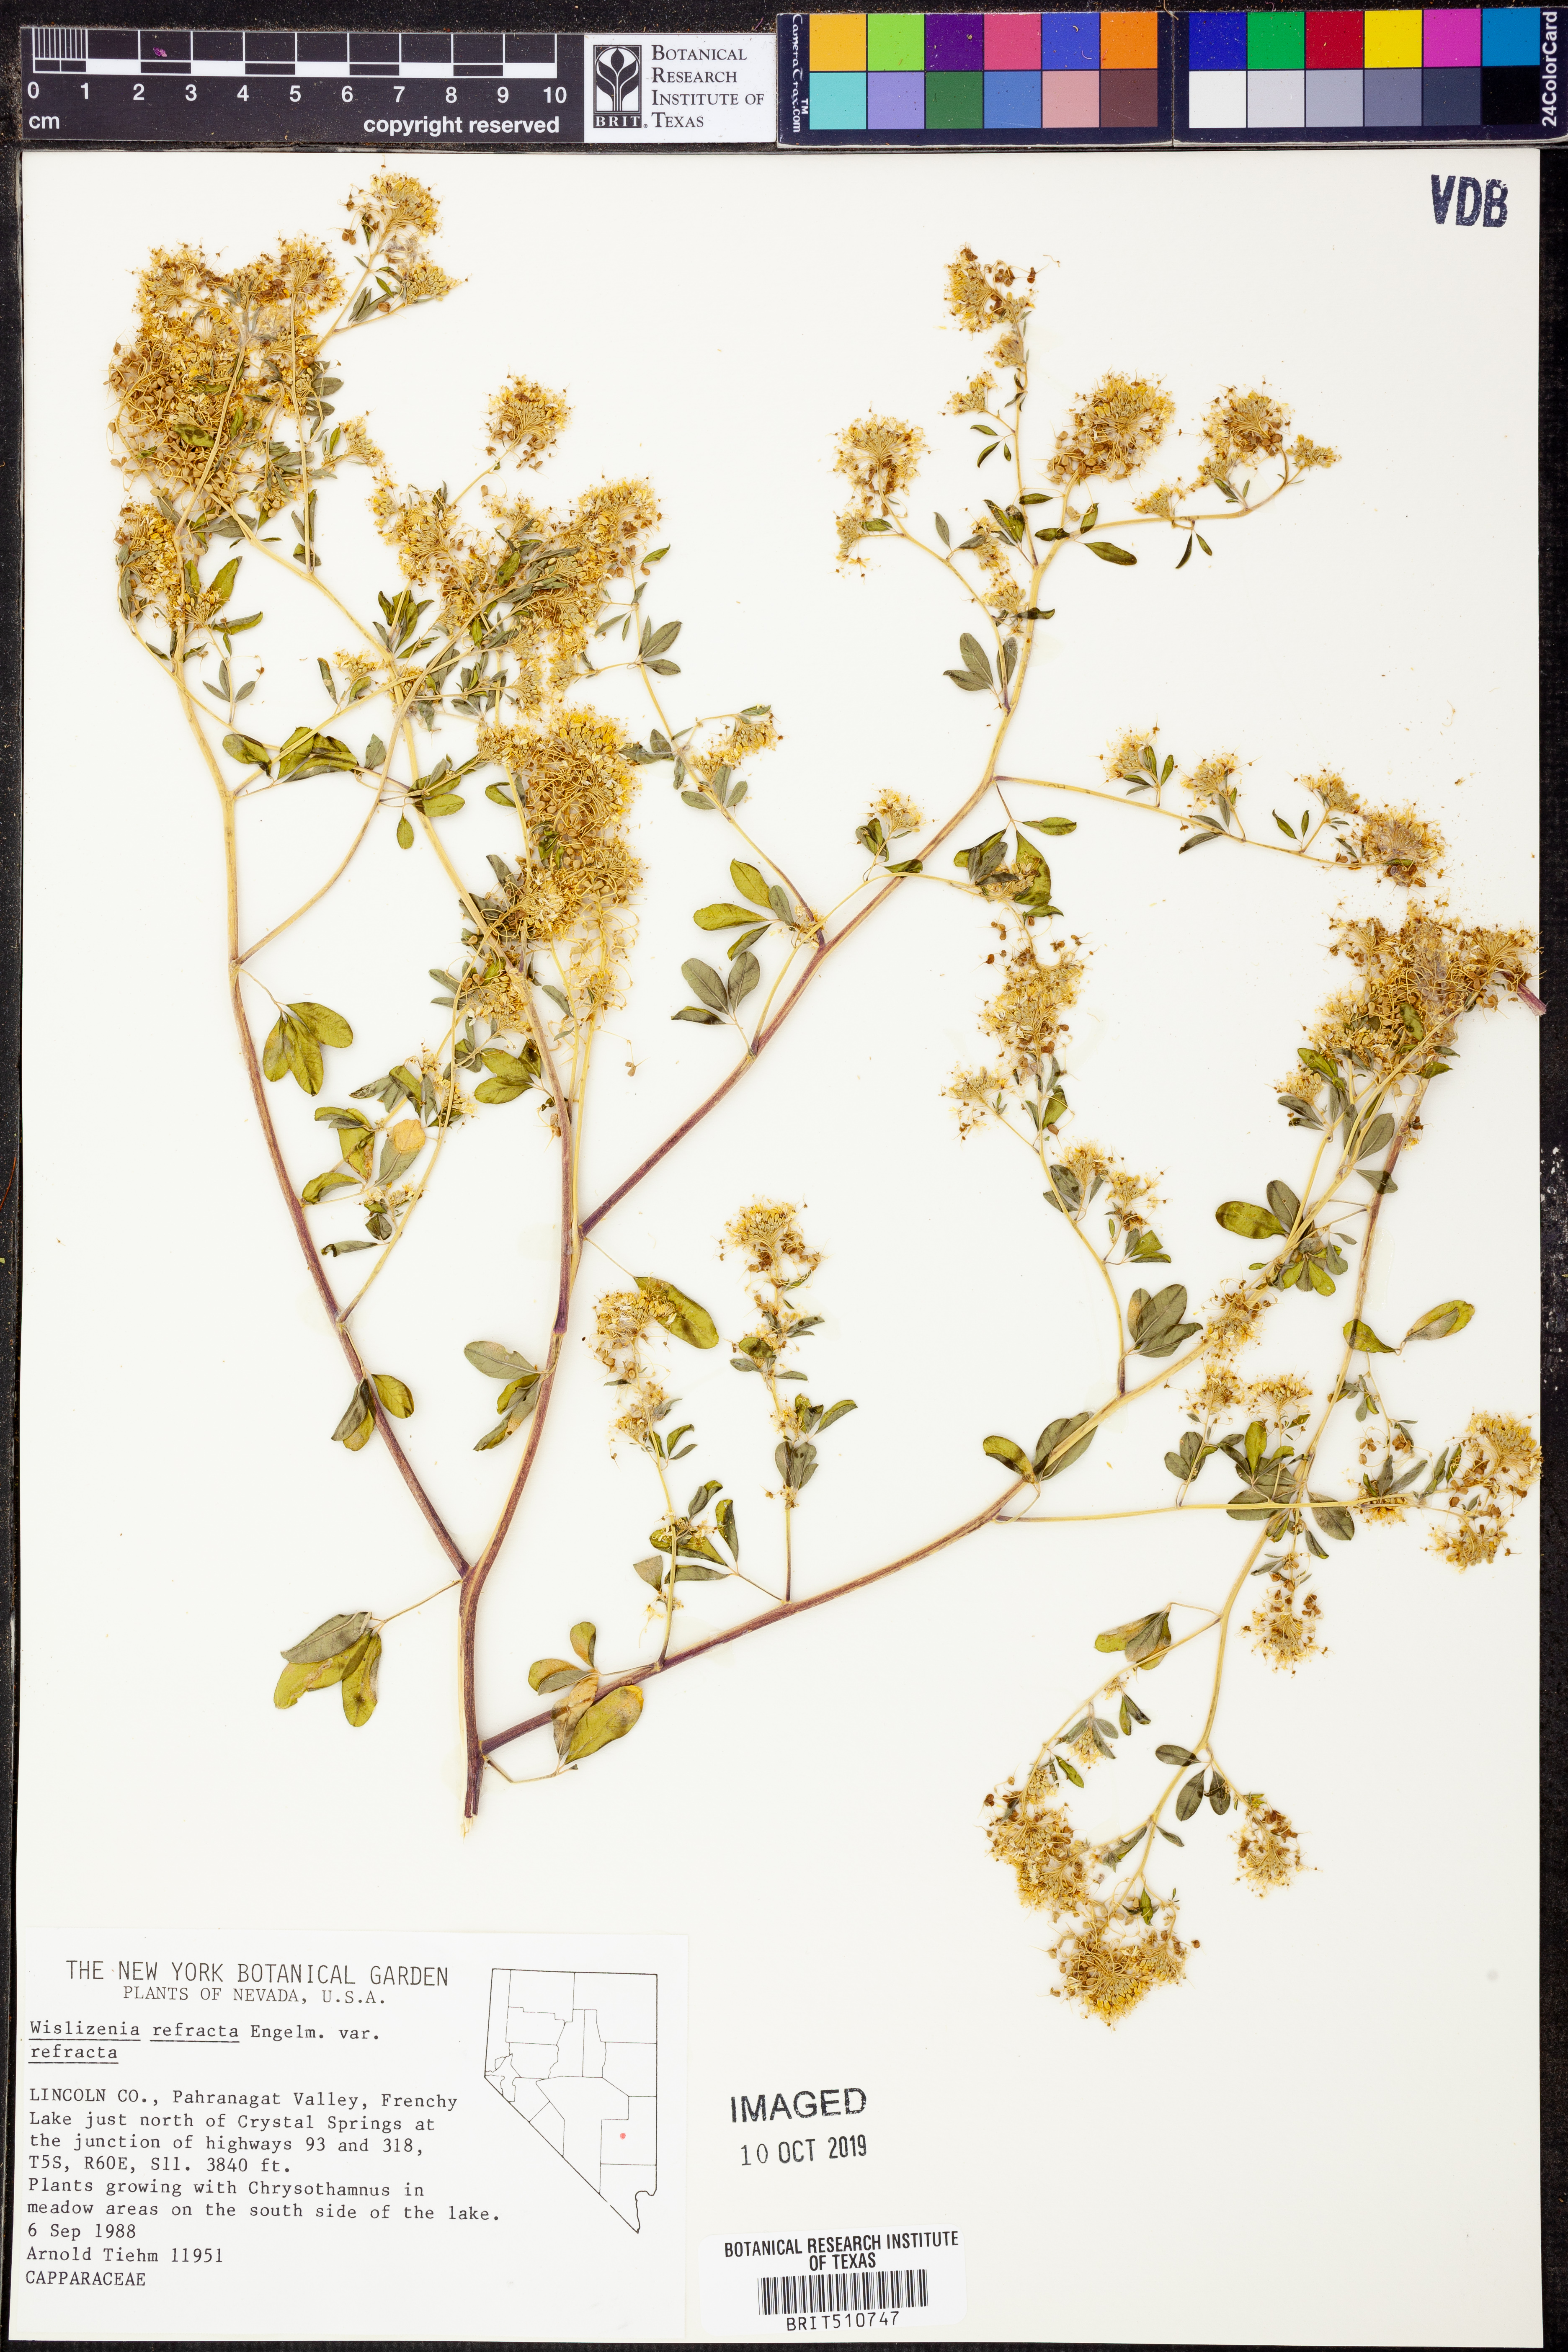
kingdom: Plantae
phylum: Tracheophyta
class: Magnoliopsida
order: Brassicales
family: Cleomaceae
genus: Cleomella
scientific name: Cleomella refracta
